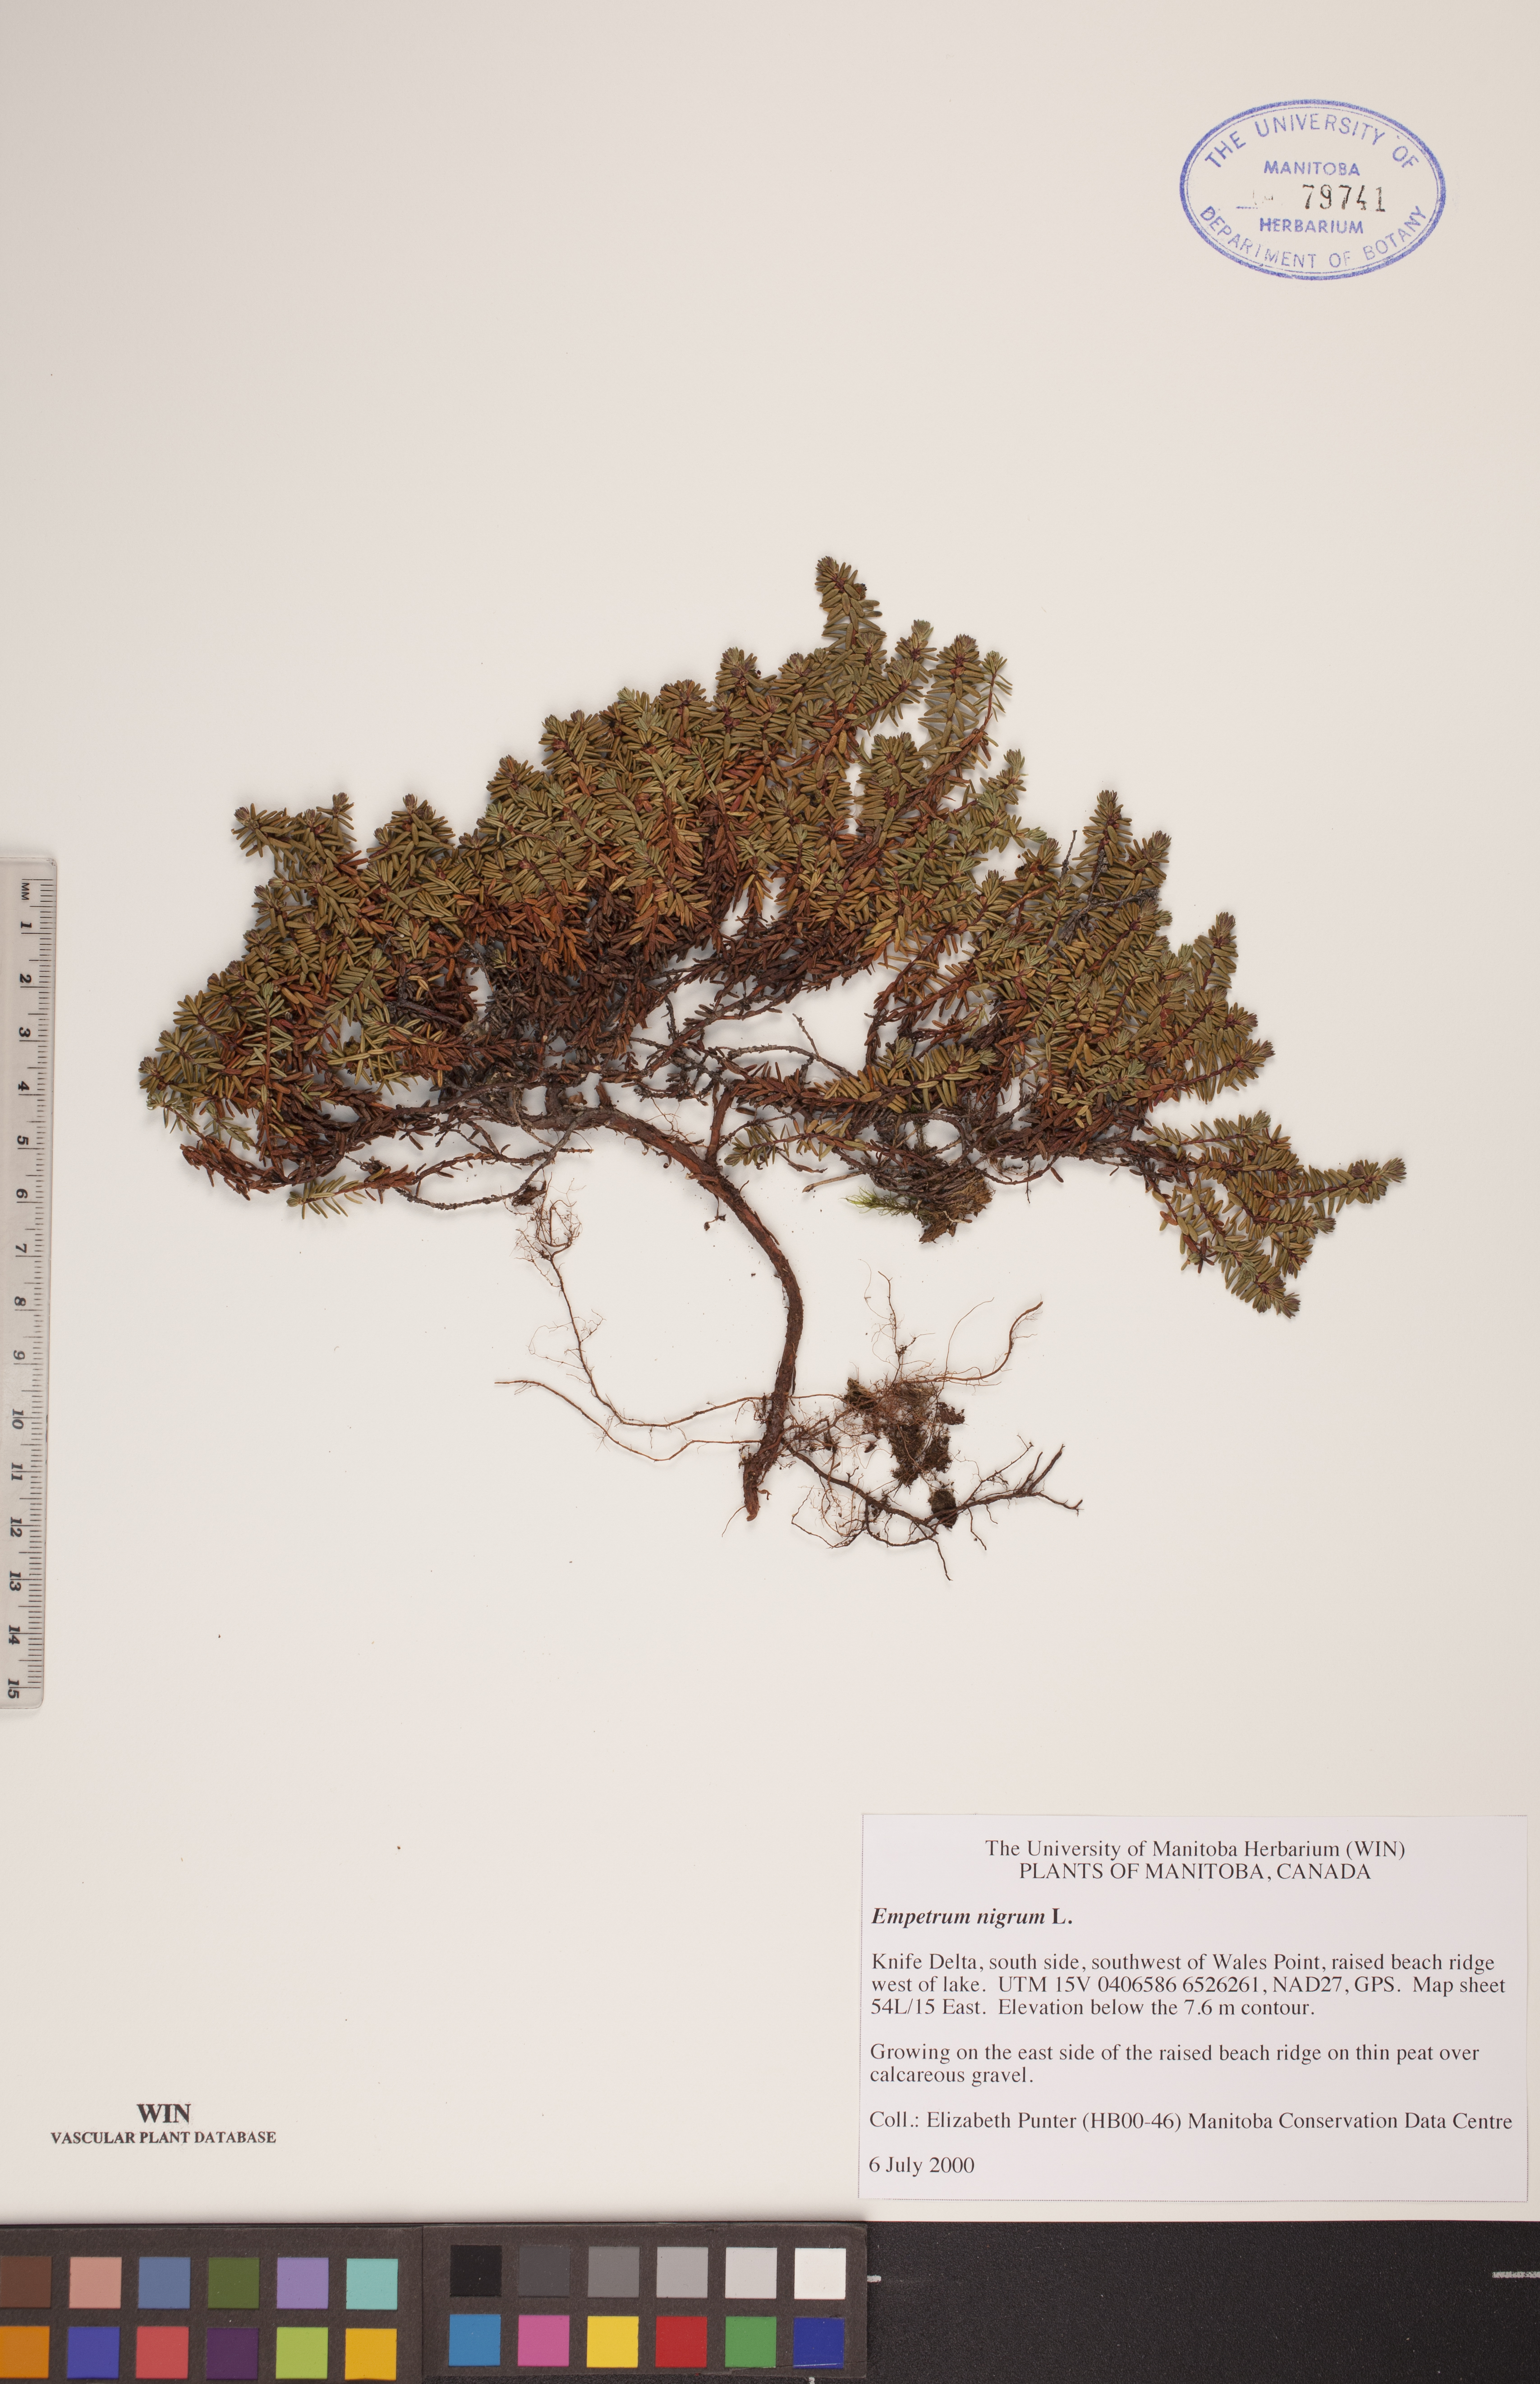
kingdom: Plantae
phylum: Tracheophyta
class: Magnoliopsida
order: Ericales
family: Ericaceae
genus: Empetrum
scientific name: Empetrum nigrum
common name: Black crowberry
